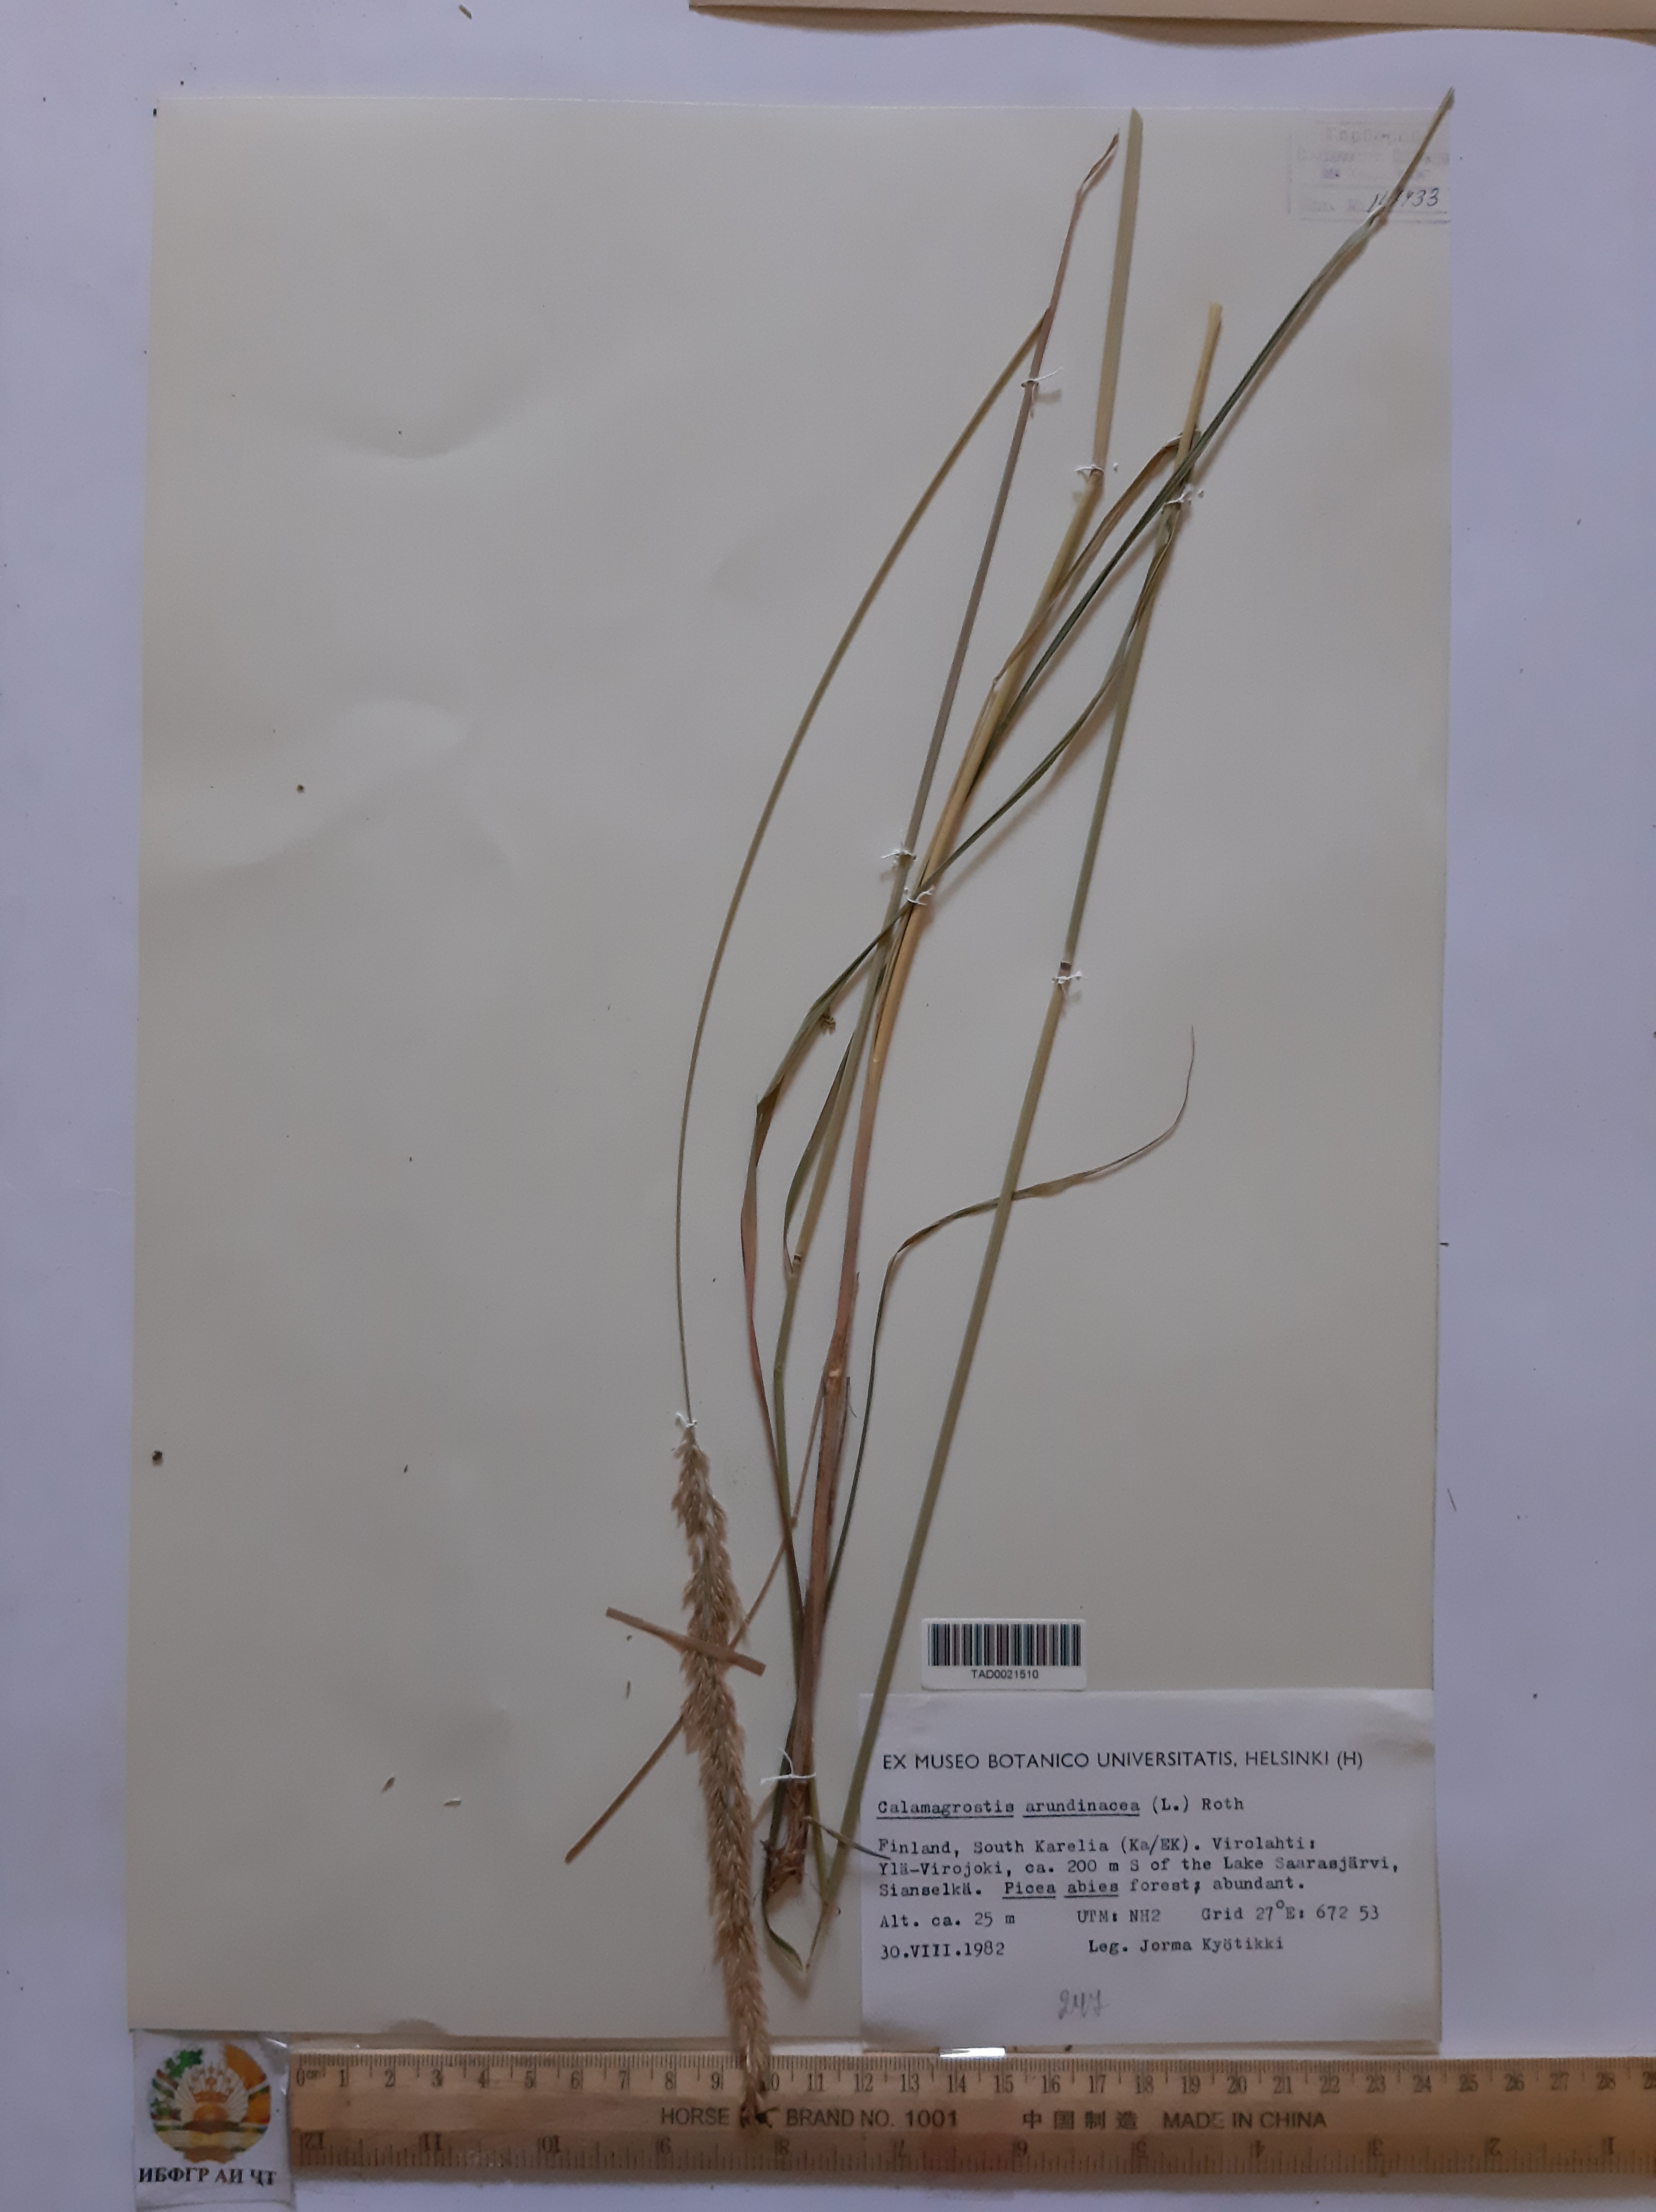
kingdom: Plantae
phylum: Tracheophyta
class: Liliopsida
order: Poales
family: Poaceae
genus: Calamagrostis
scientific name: Calamagrostis arundinacea
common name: Metskastik
